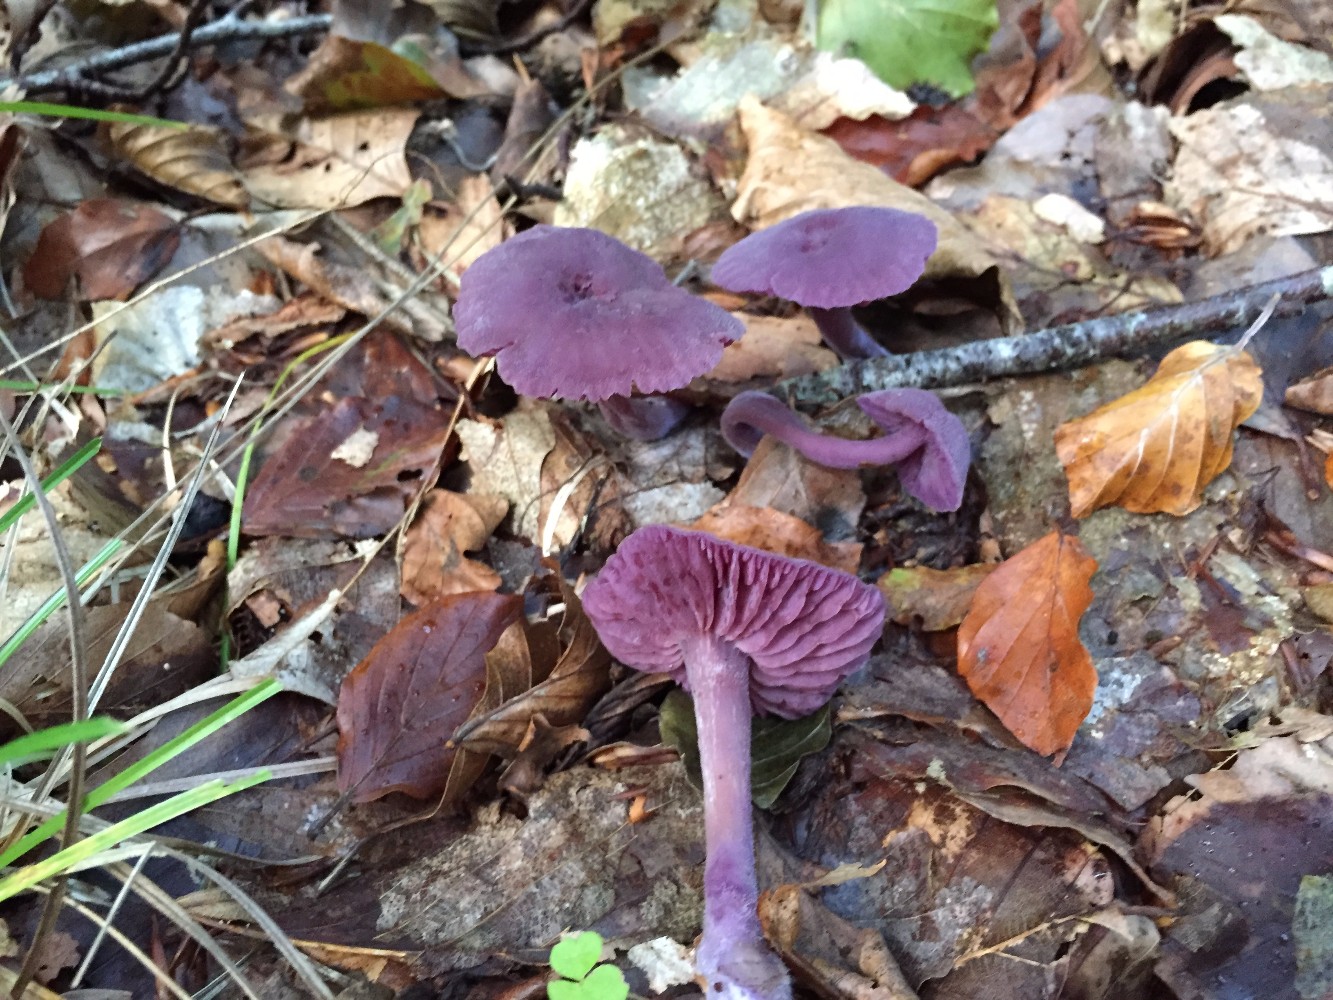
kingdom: Fungi
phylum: Basidiomycota
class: Agaricomycetes
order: Agaricales
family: Hydnangiaceae
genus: Laccaria
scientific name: Laccaria amethystina
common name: violet ametysthat
